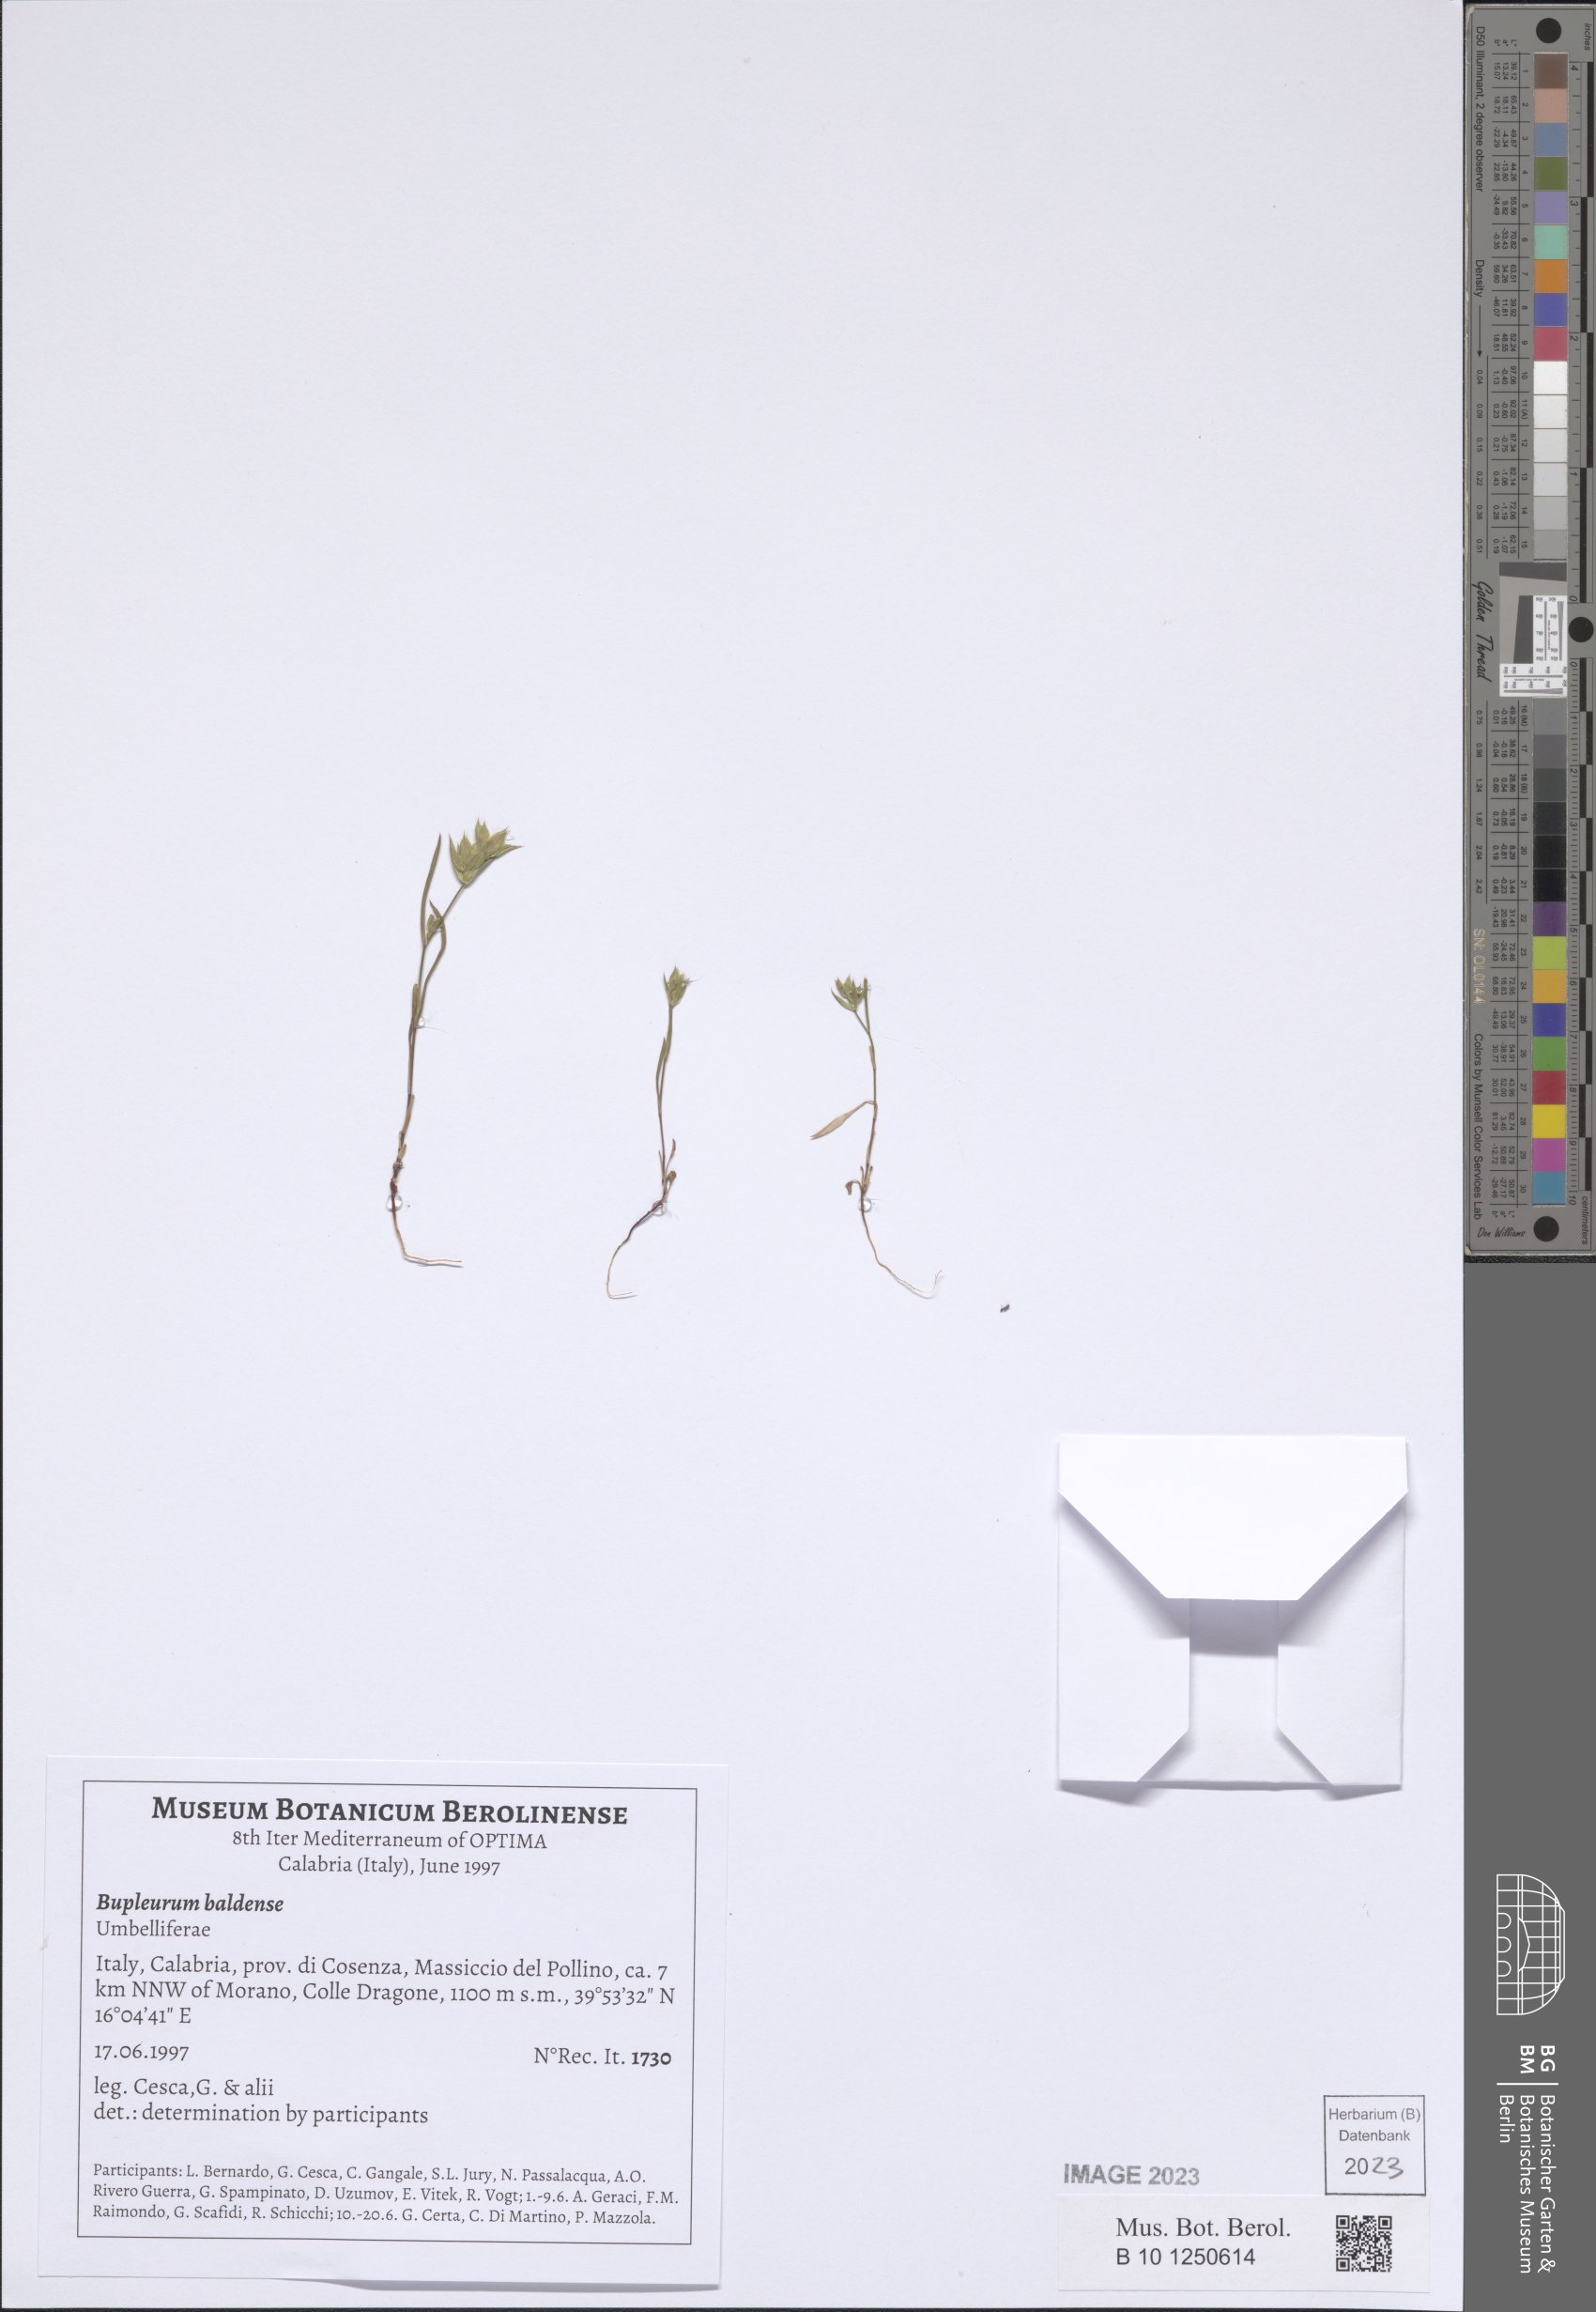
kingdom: Plantae
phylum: Tracheophyta
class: Magnoliopsida
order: Apiales
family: Apiaceae
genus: Bupleurum
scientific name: Bupleurum baldense
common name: Small hare's-ear
